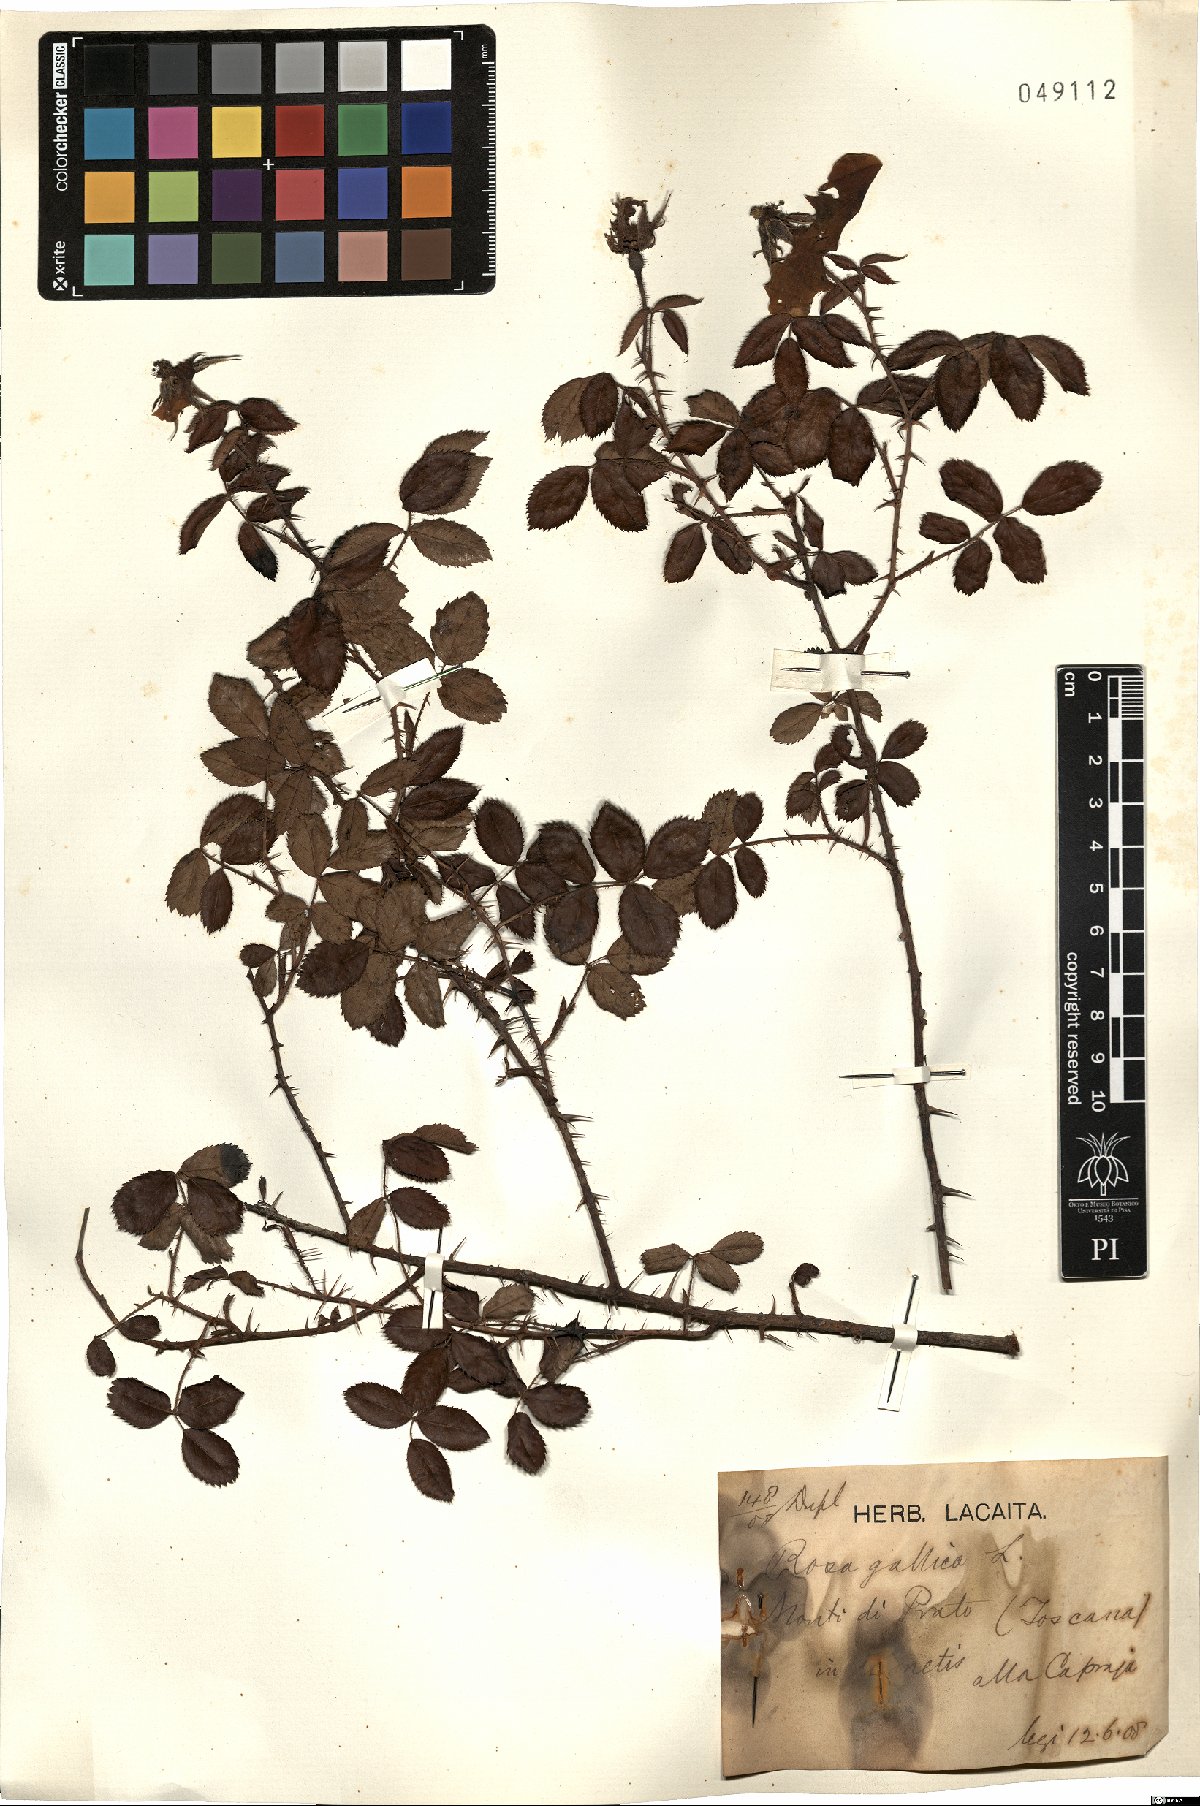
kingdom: Plantae
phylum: Tracheophyta
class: Magnoliopsida
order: Rosales
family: Rosaceae
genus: Rosa
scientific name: Rosa gallica
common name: French rose
